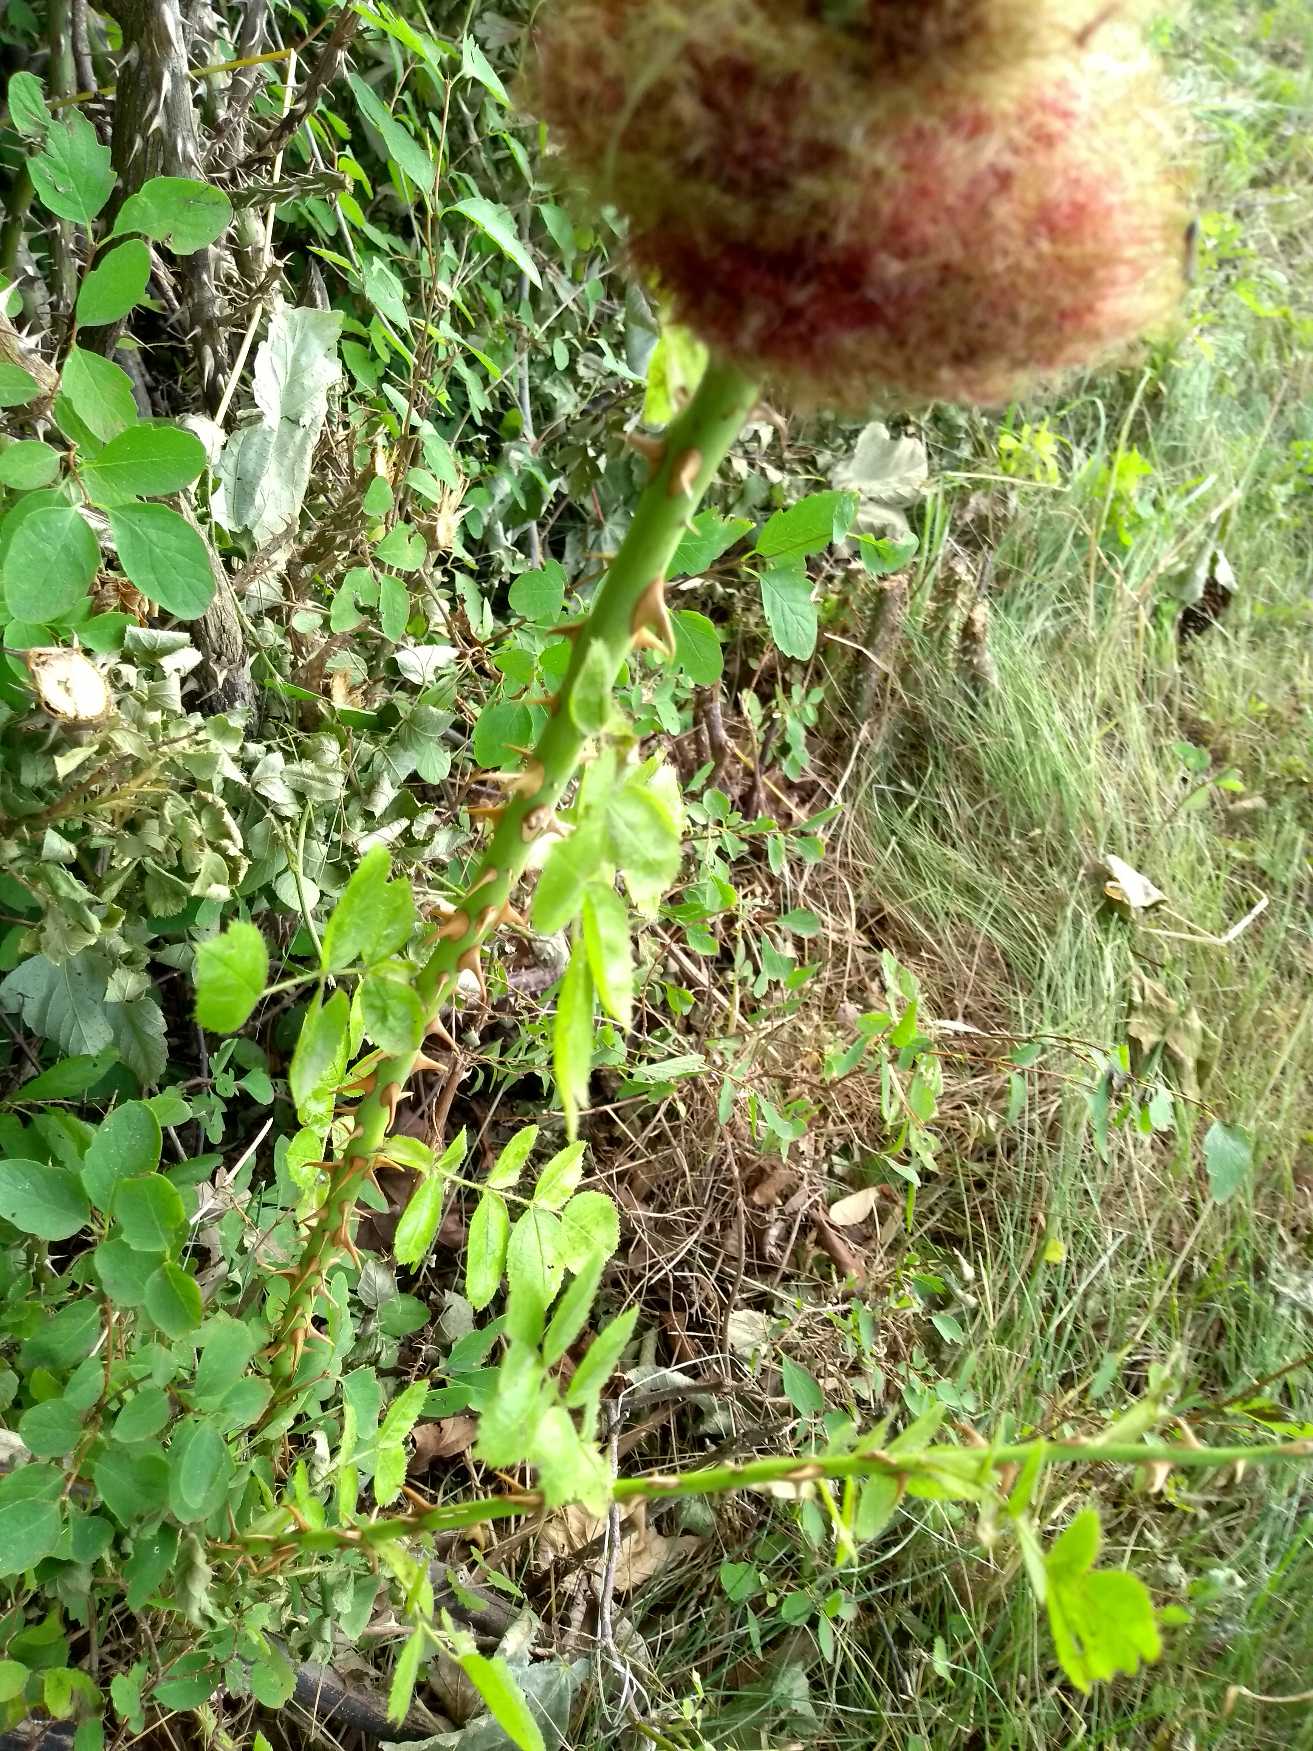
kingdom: Animalia
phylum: Arthropoda
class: Insecta
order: Hymenoptera
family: Cynipidae
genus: Diplolepis
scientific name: Diplolepis rosae
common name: Bedeguargalhveps
